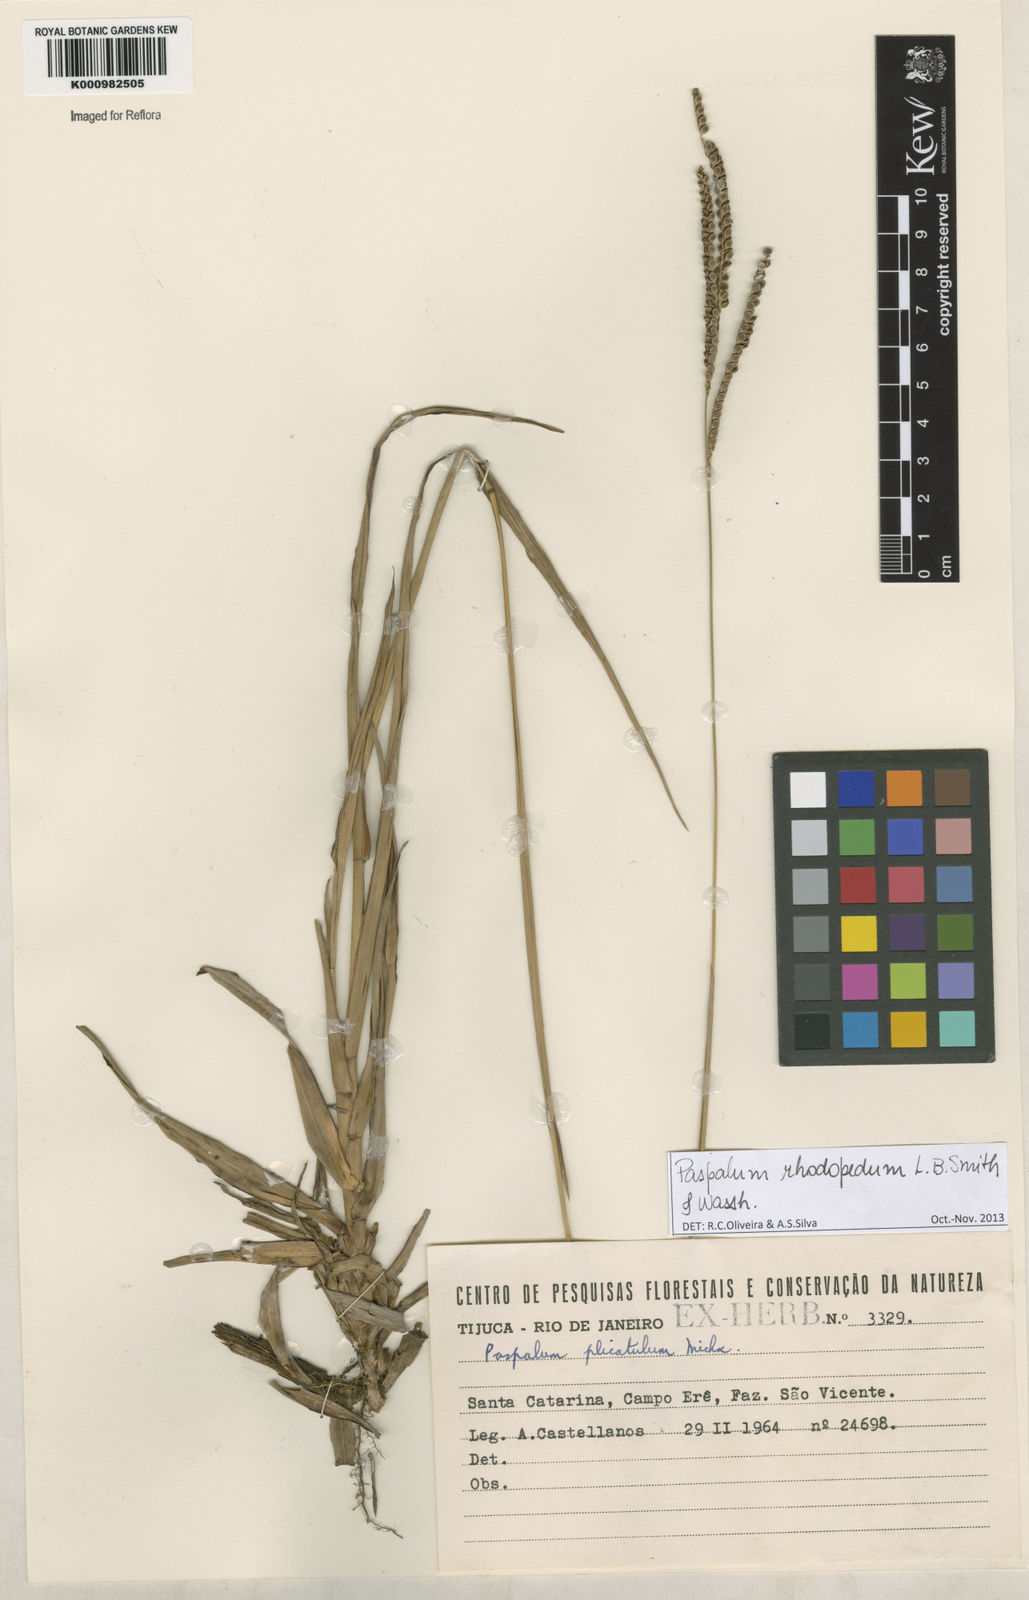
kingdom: Plantae
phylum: Tracheophyta
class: Liliopsida
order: Poales
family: Poaceae
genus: Paspalum
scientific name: Paspalum guenoarum
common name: Wintergreen paspalum
